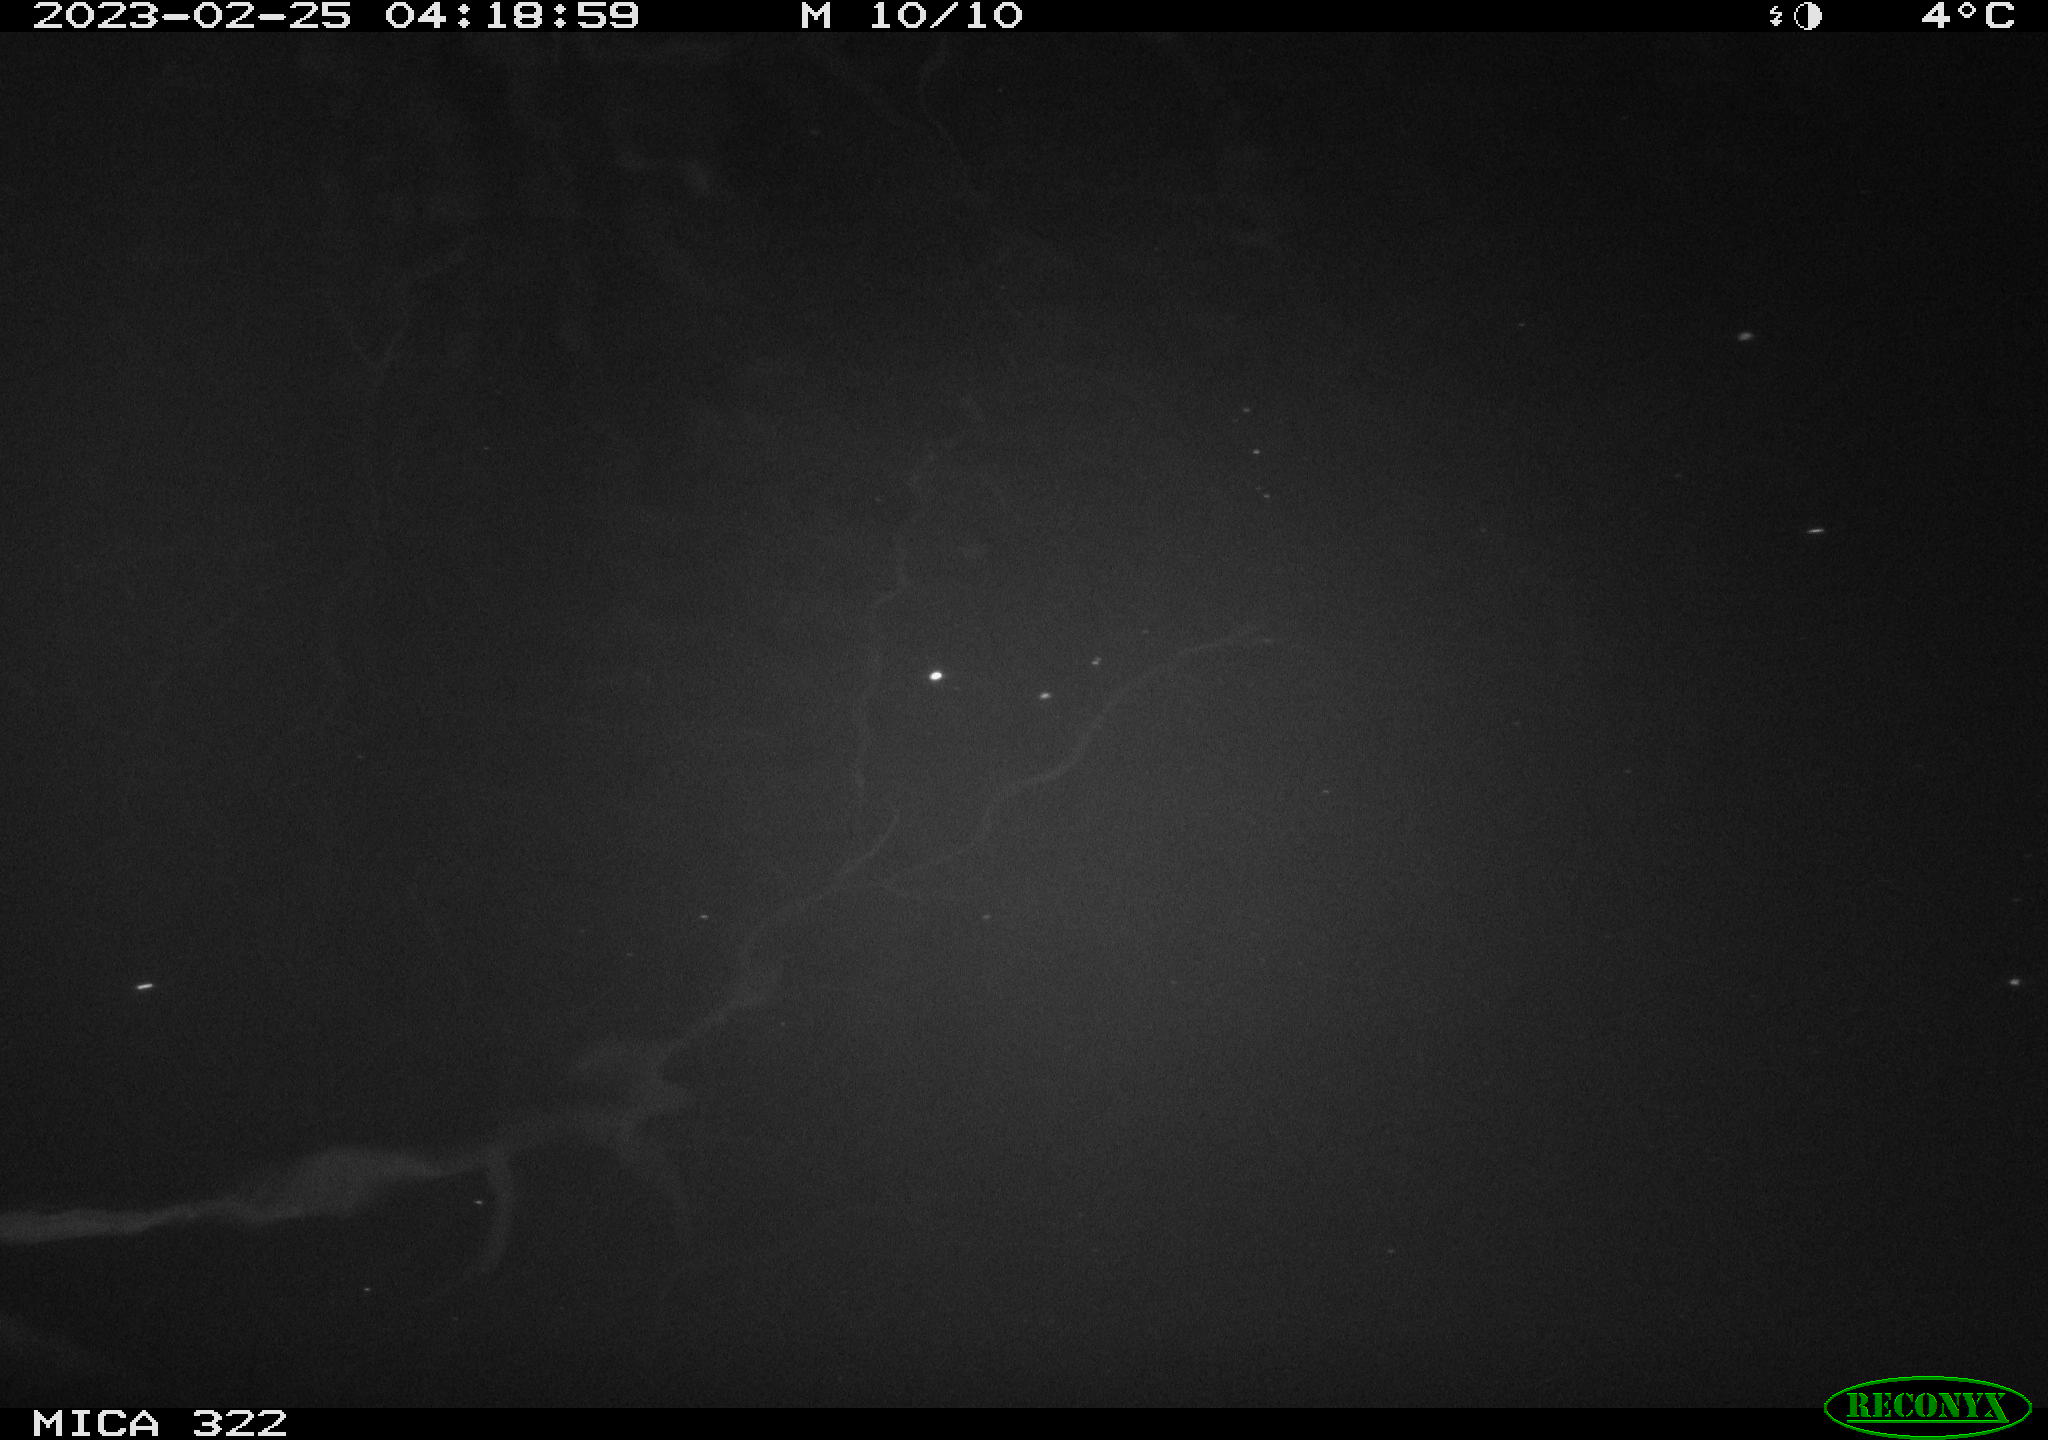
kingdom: Animalia
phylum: Chordata
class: Mammalia
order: Rodentia
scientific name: Rodentia
